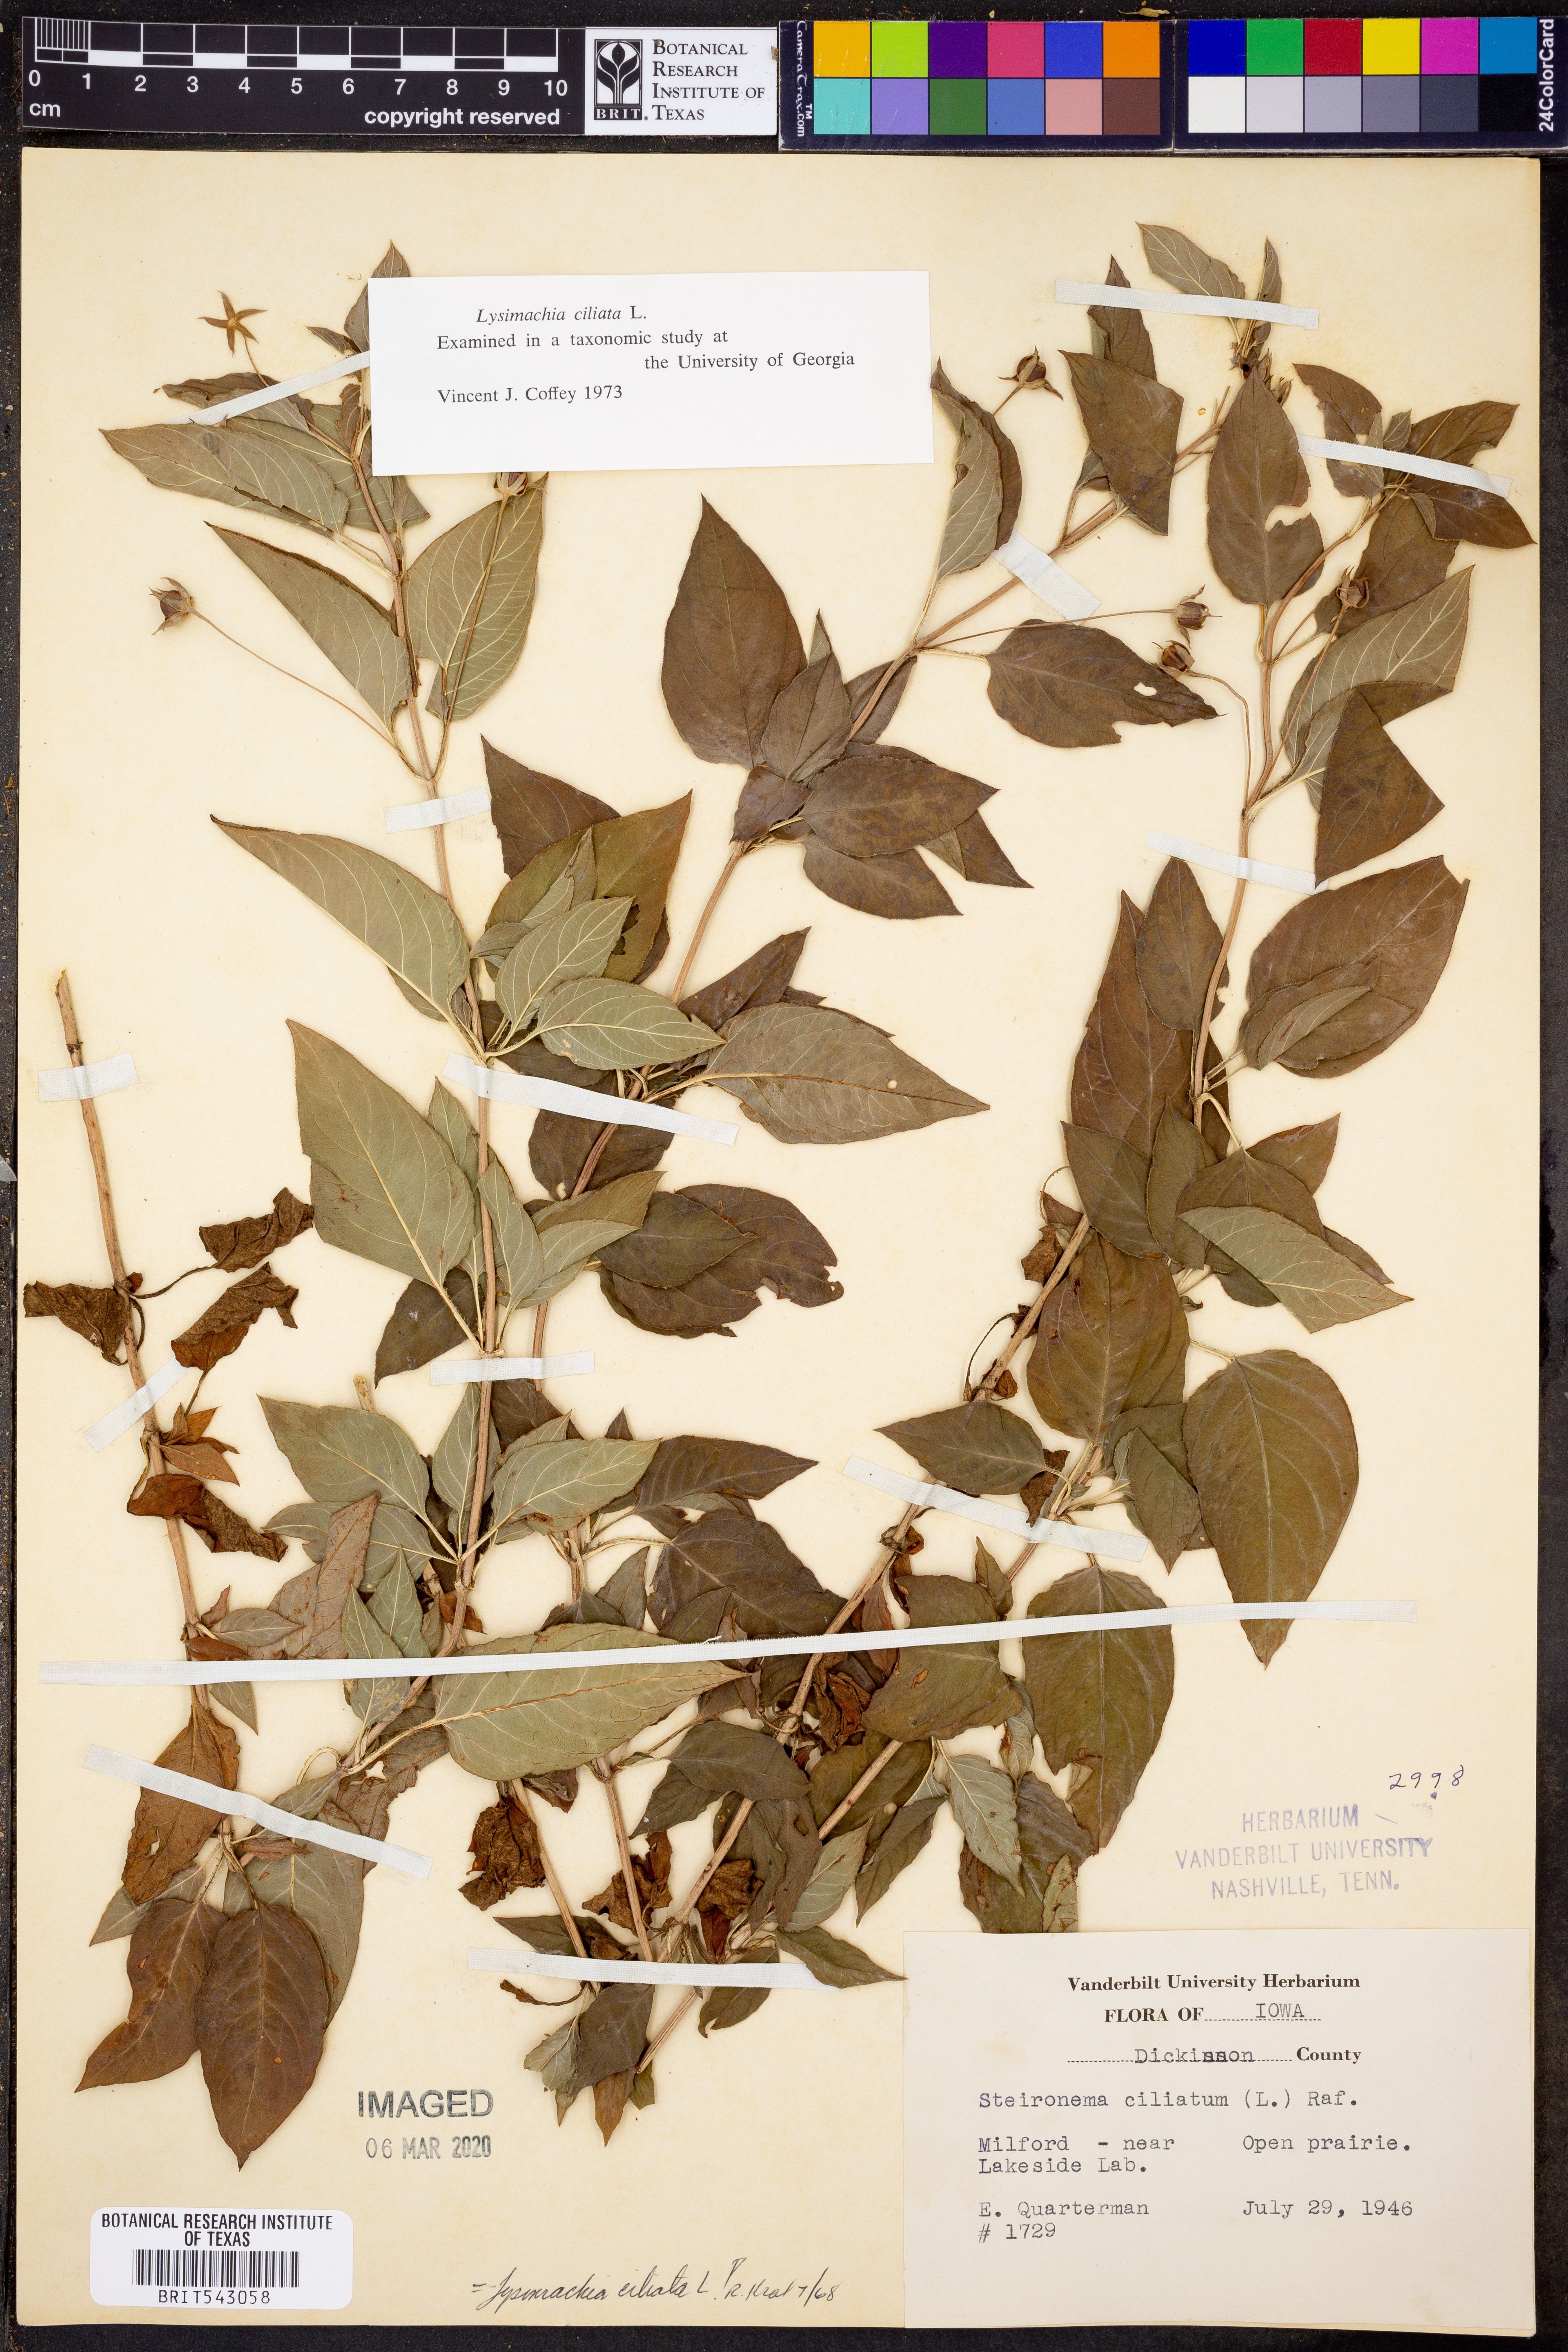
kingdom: Plantae
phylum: Tracheophyta
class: Magnoliopsida
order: Ericales
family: Primulaceae
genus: Lysimachia
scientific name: Lysimachia ciliata
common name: Fringed loosestrife
